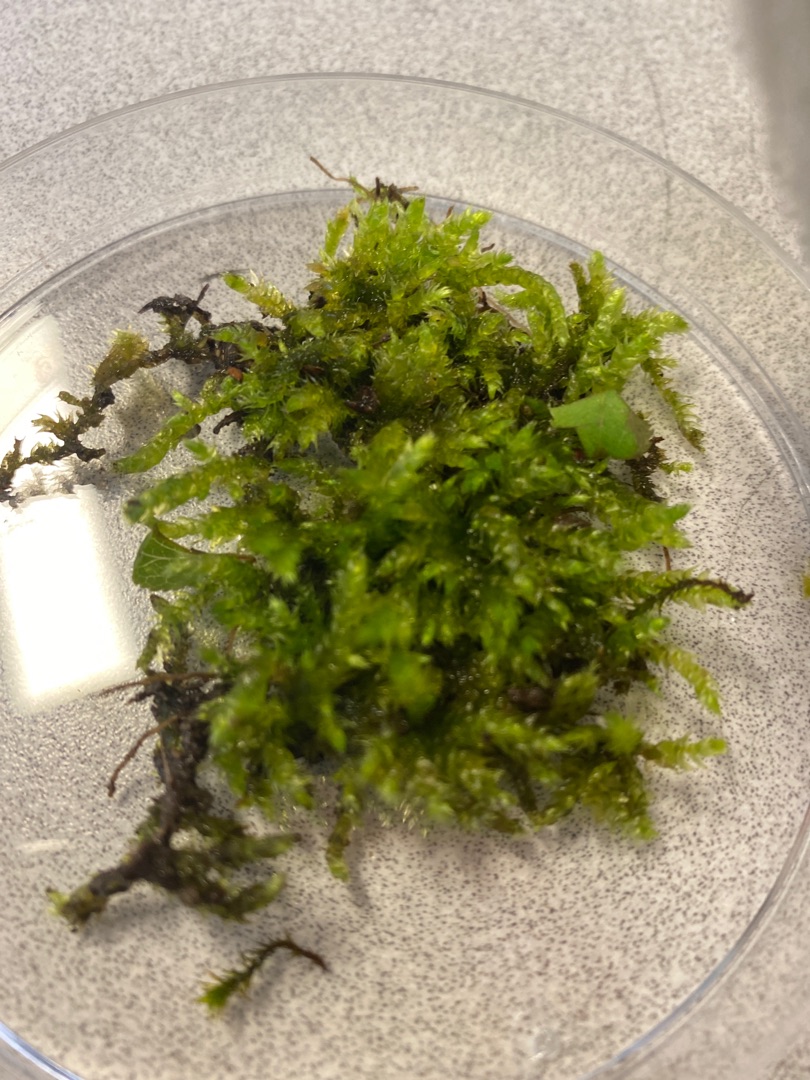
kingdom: Plantae
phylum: Bryophyta
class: Bryopsida
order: Hypnales
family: Brachytheciaceae
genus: Brachythecium
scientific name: Brachythecium rutabulum
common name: Almindelig kortkapsel
